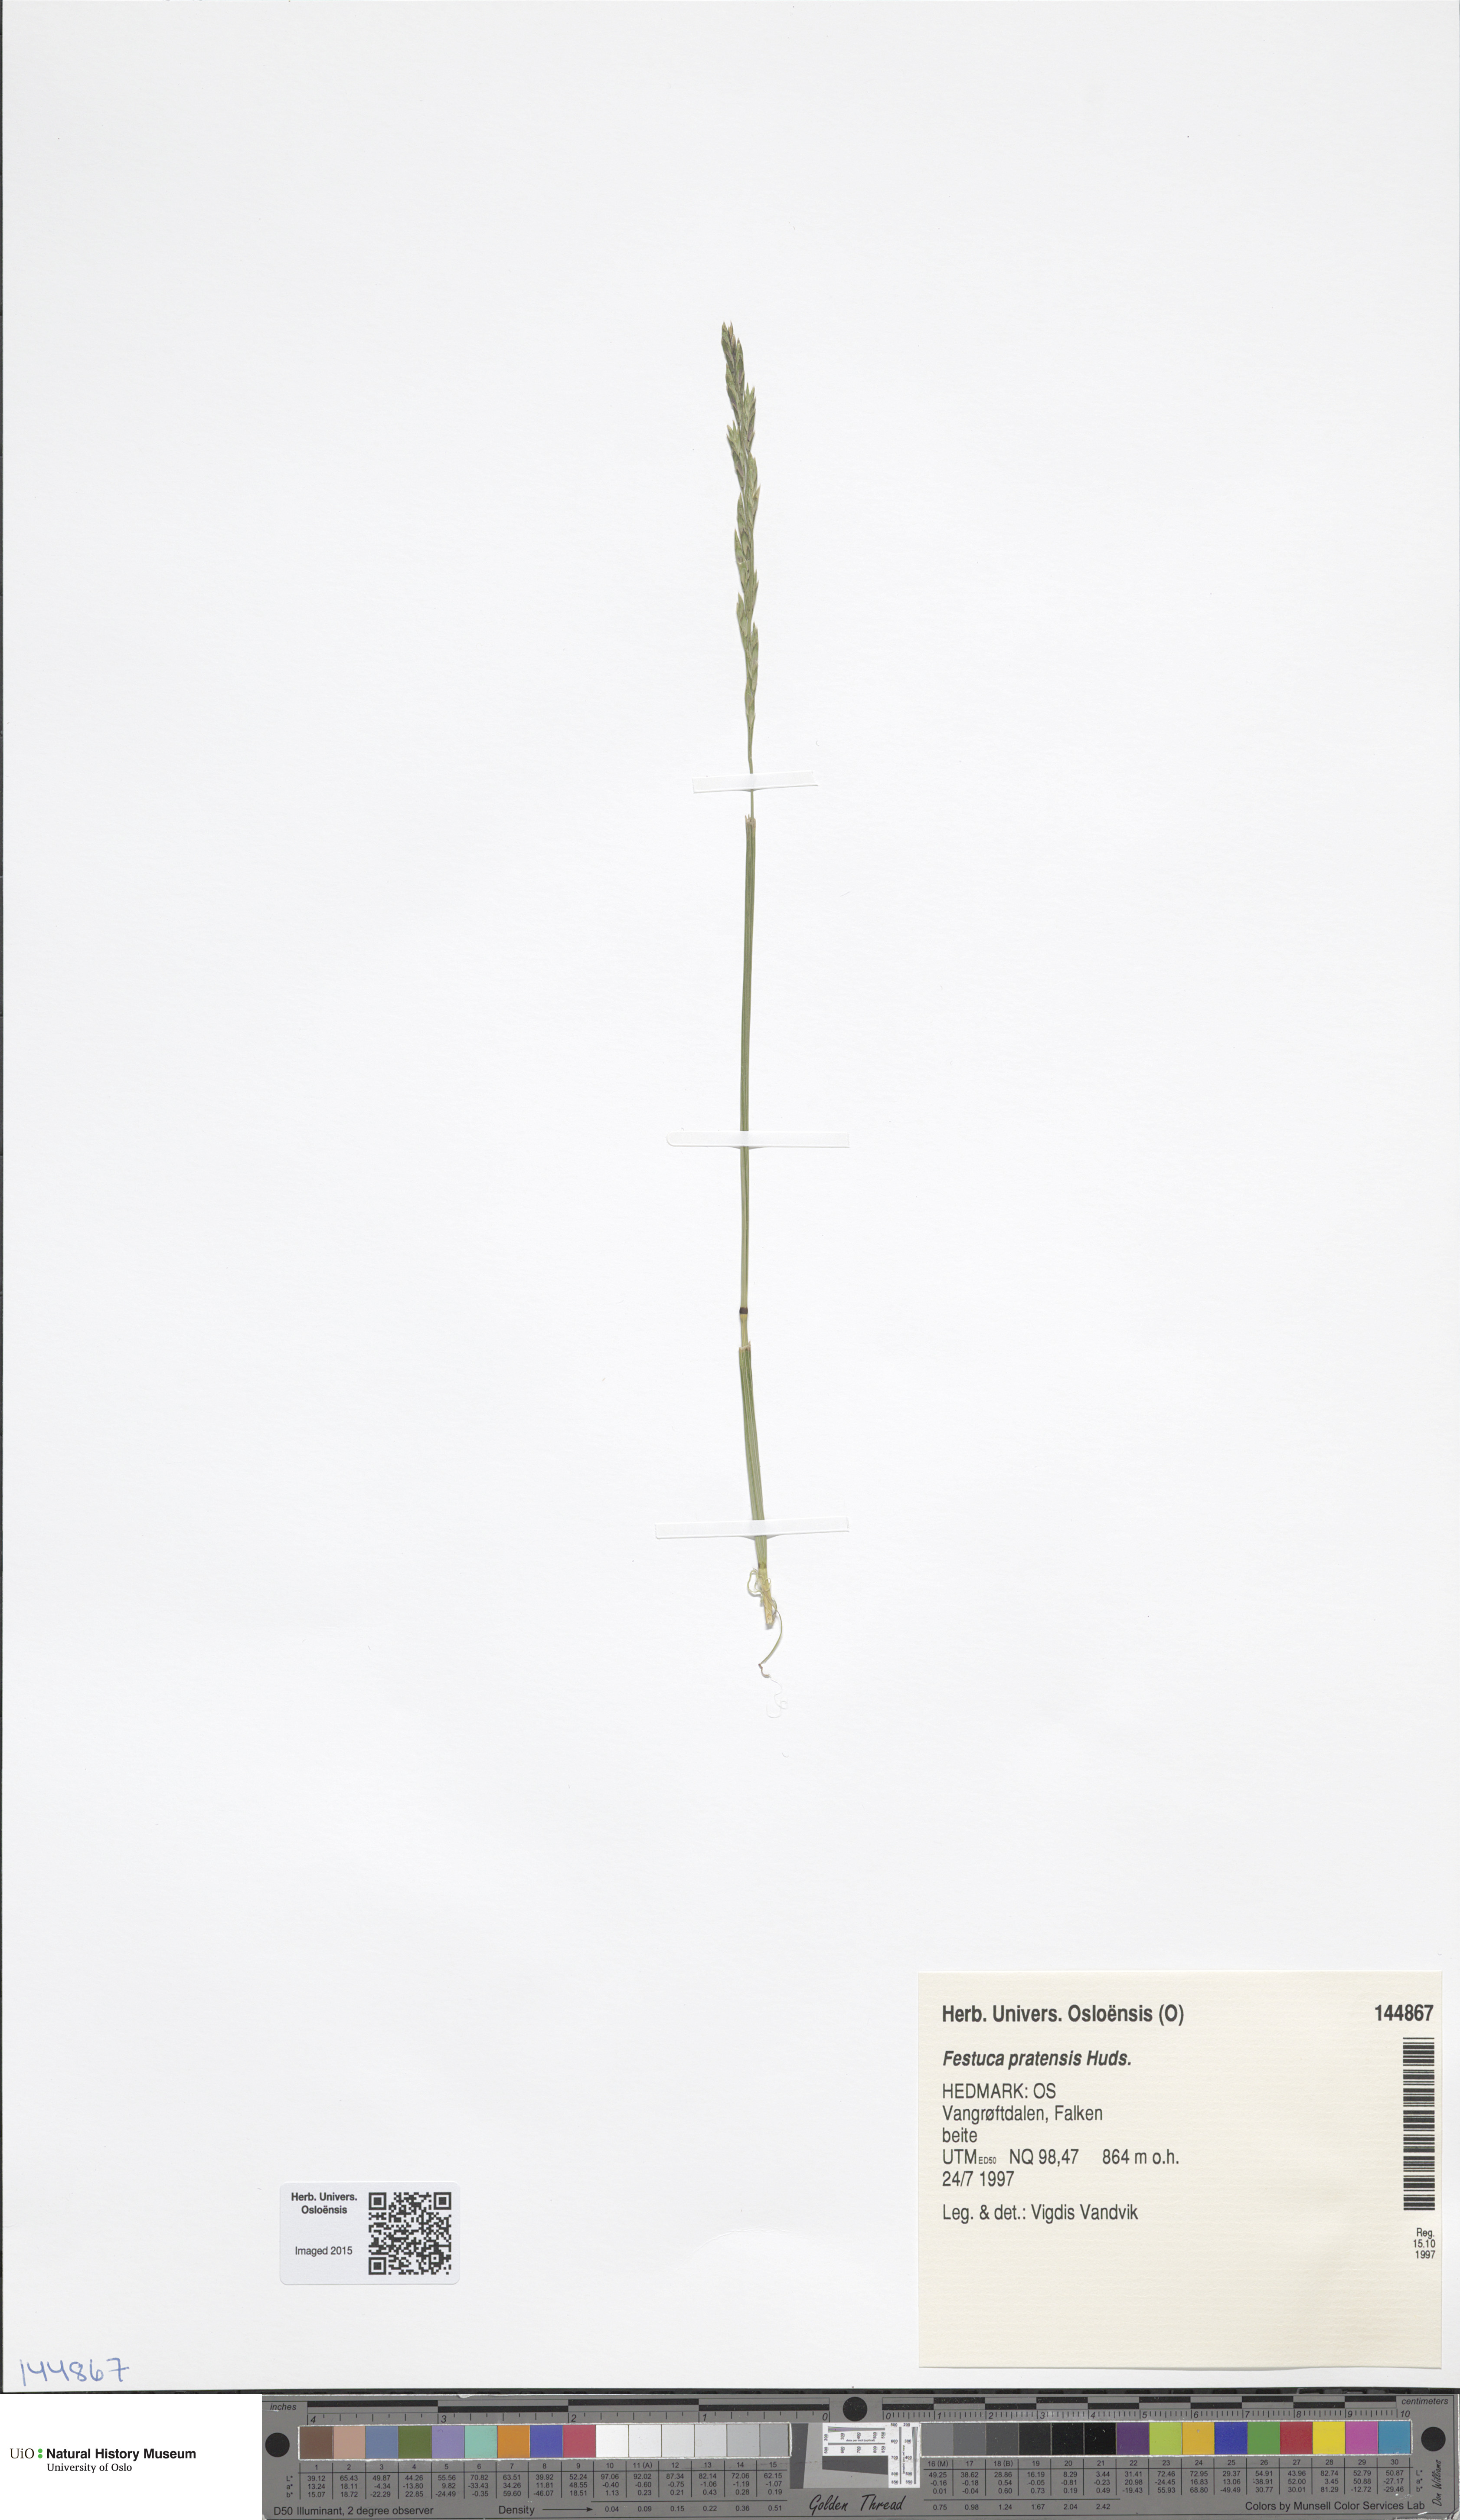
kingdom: Plantae
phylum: Tracheophyta
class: Liliopsida
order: Poales
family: Poaceae
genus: Lolium
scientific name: Lolium pratense
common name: Dover grass
